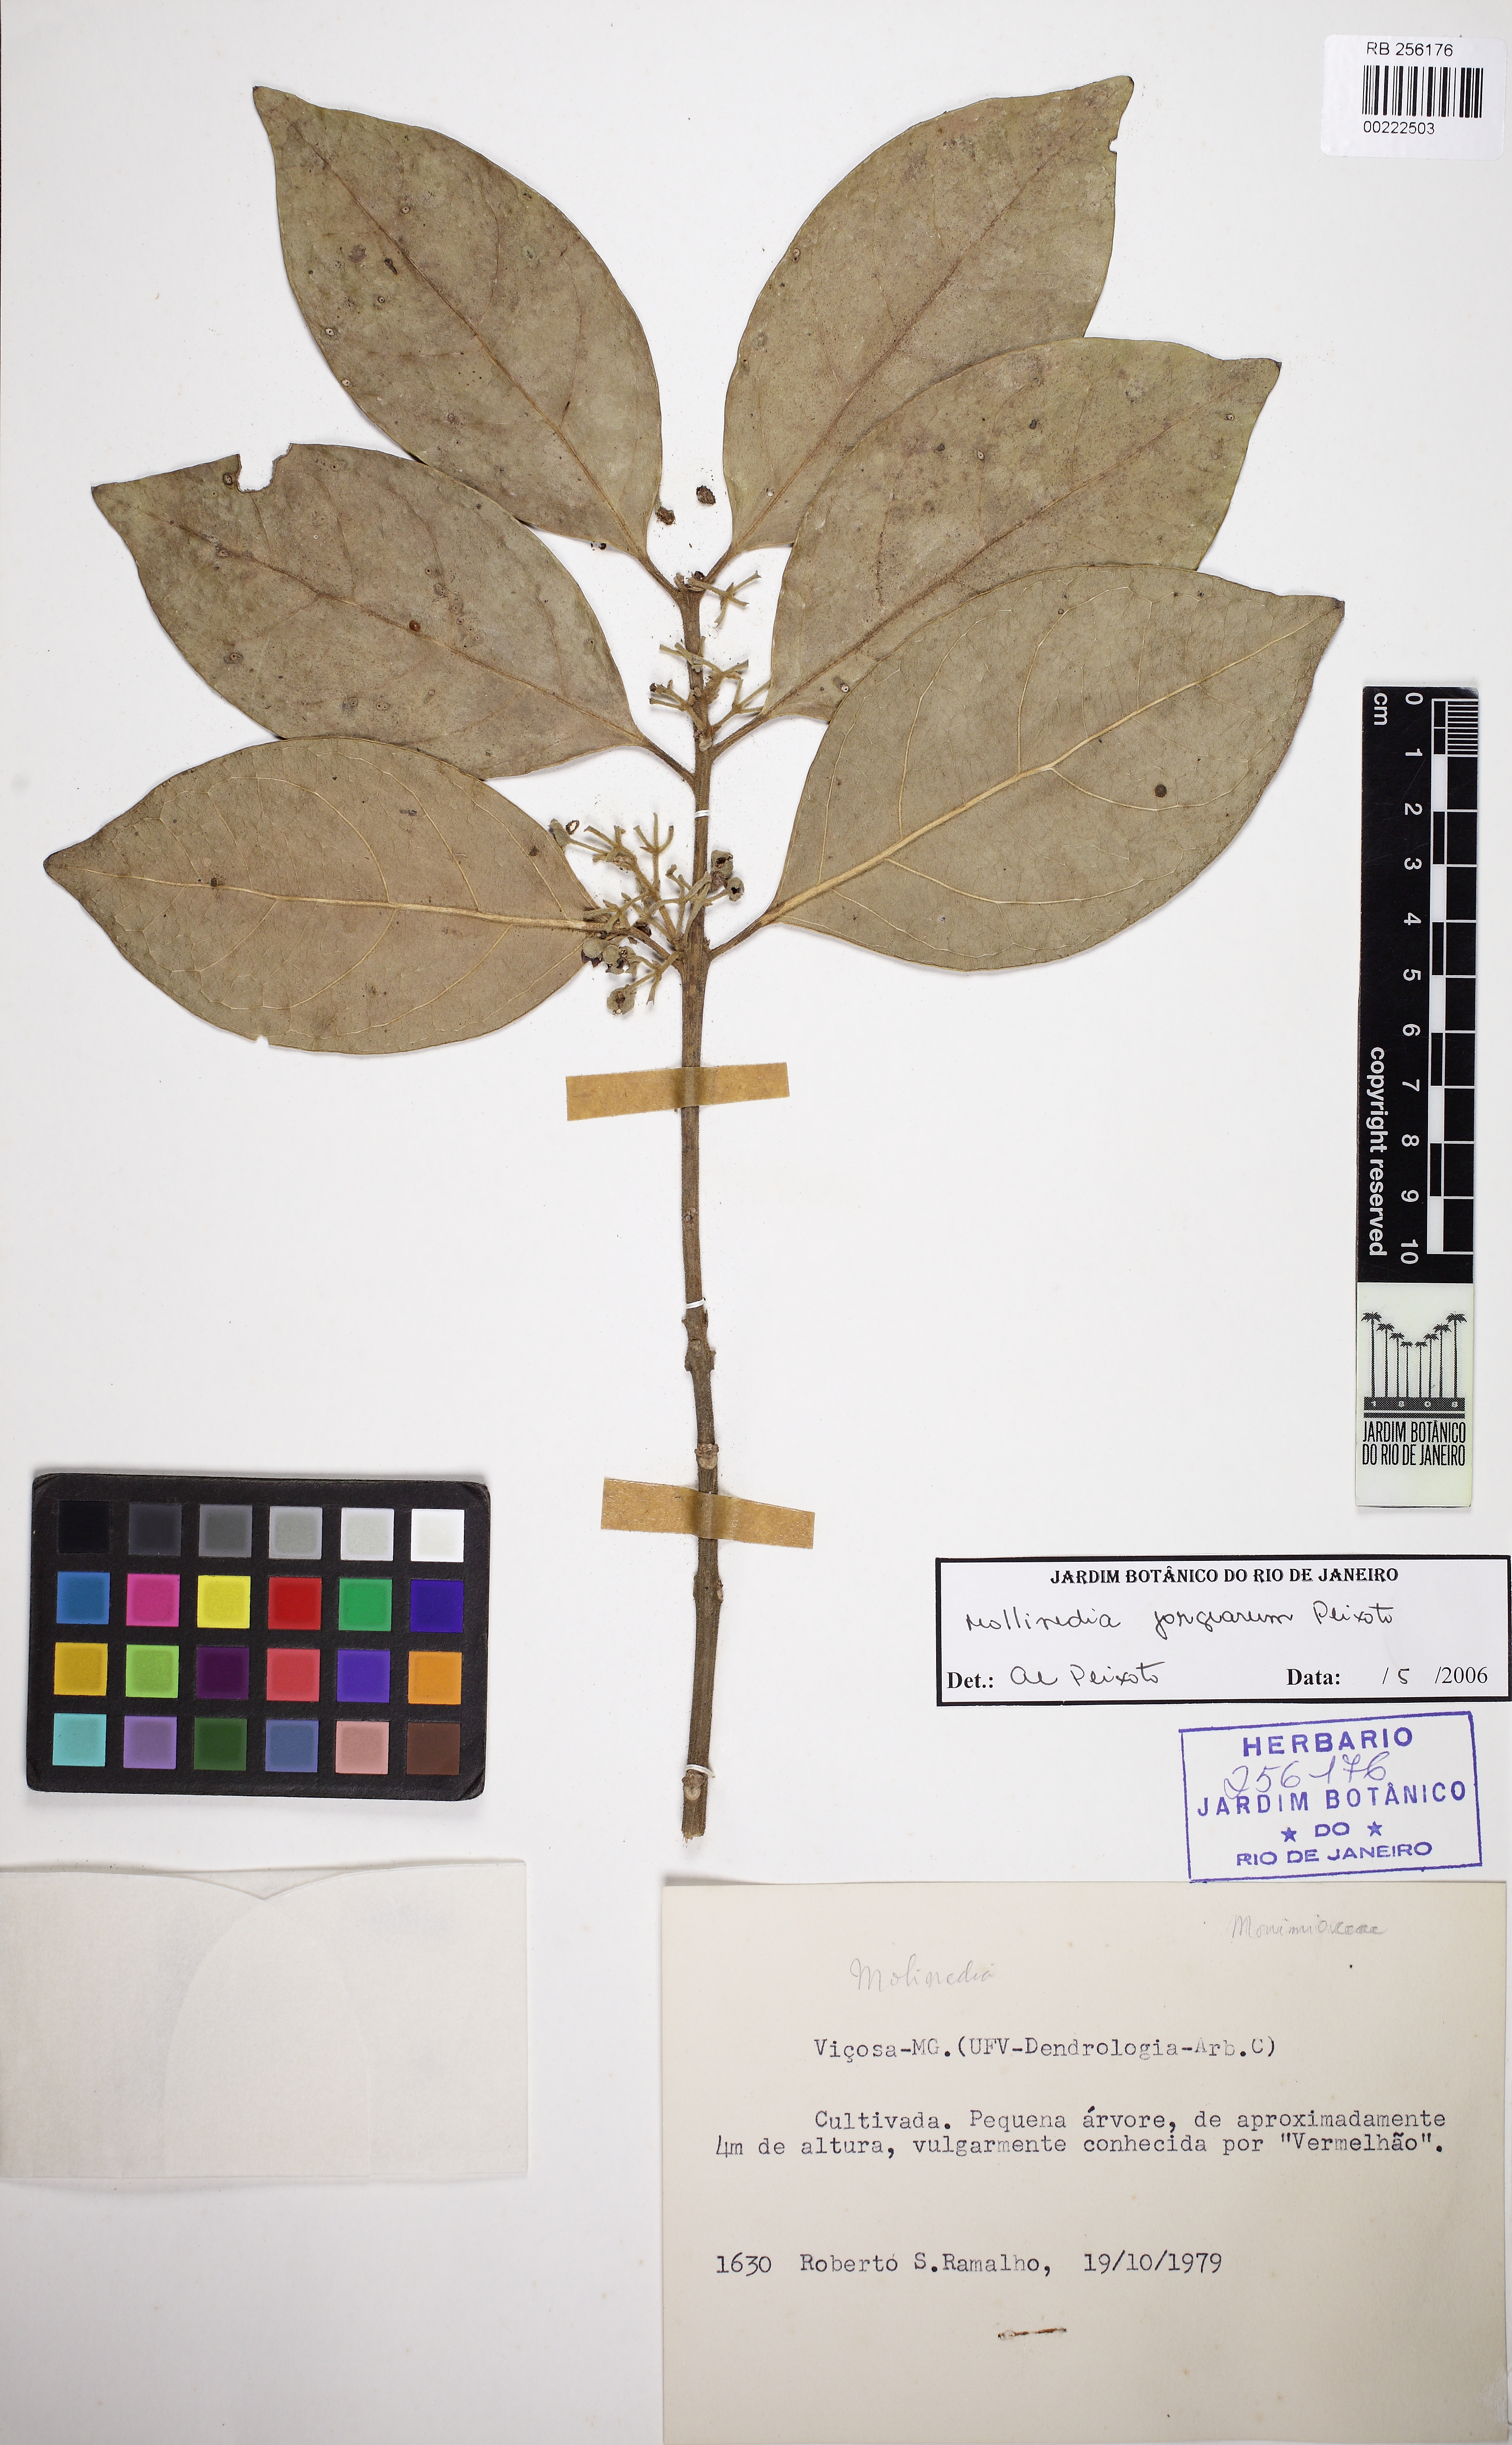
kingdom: Plantae
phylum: Tracheophyta
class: Magnoliopsida
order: Laurales
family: Monimiaceae
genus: Mollinedia
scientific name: Mollinedia jorgearum
